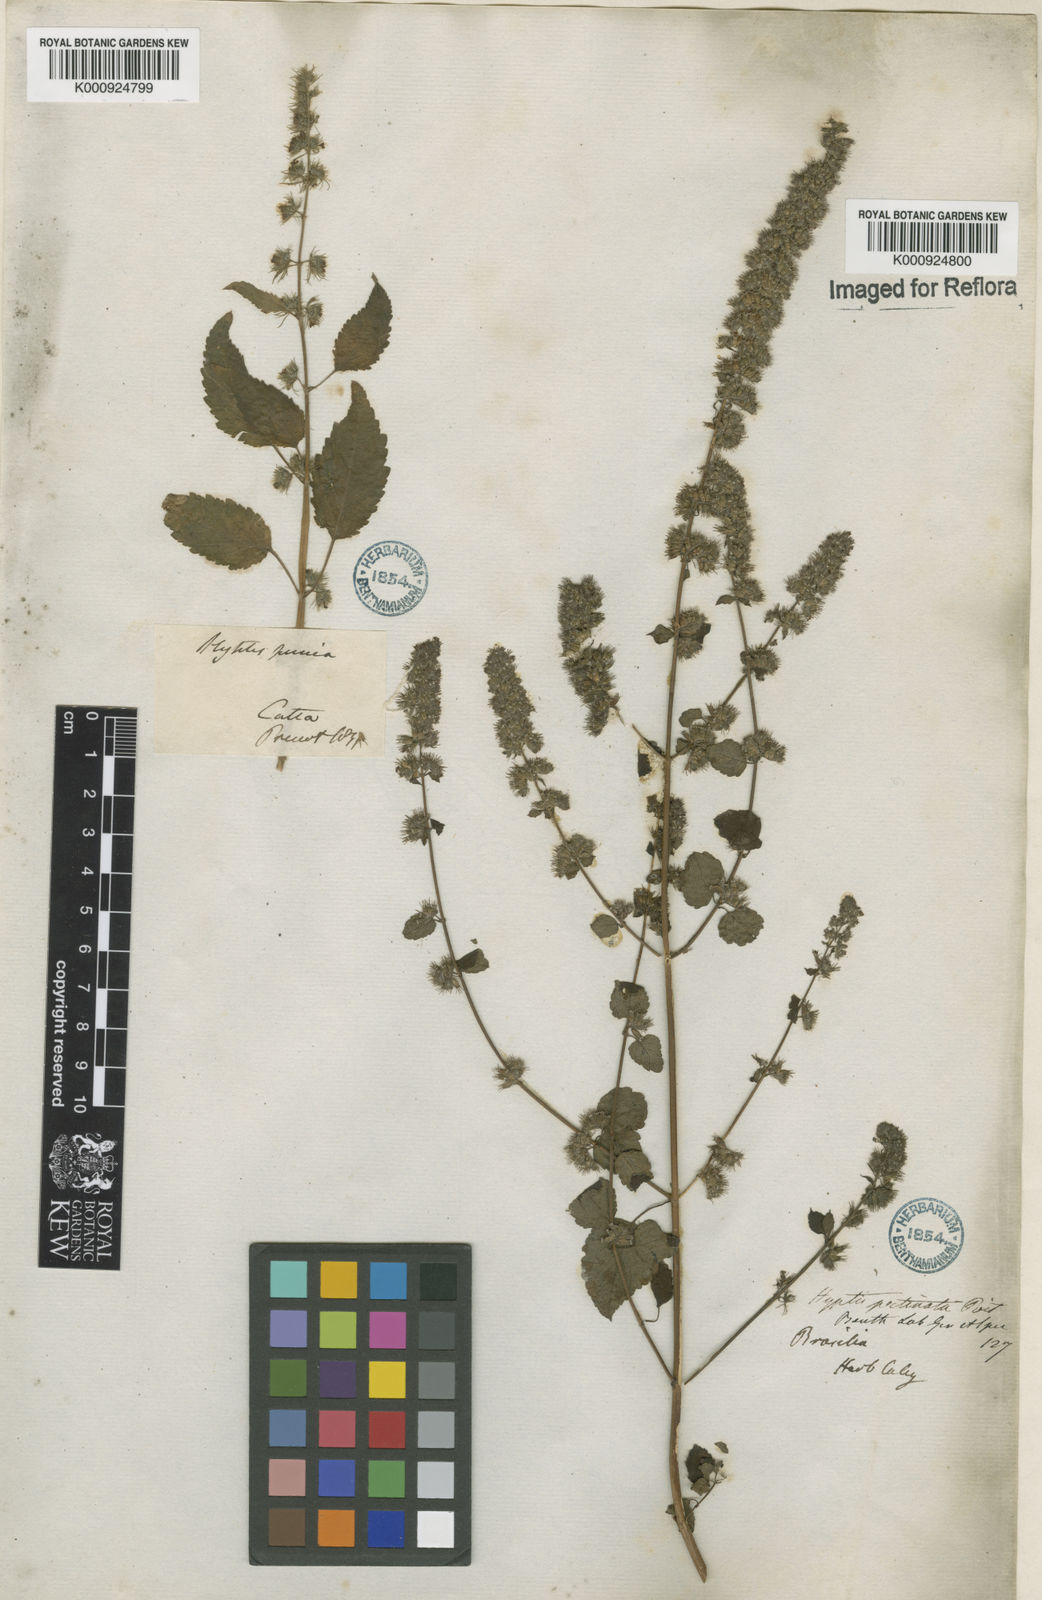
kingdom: Plantae
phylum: Tracheophyta
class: Magnoliopsida
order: Lamiales
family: Lamiaceae
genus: Mesosphaerum
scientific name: Mesosphaerum pectinatum
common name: Comb hyptis
